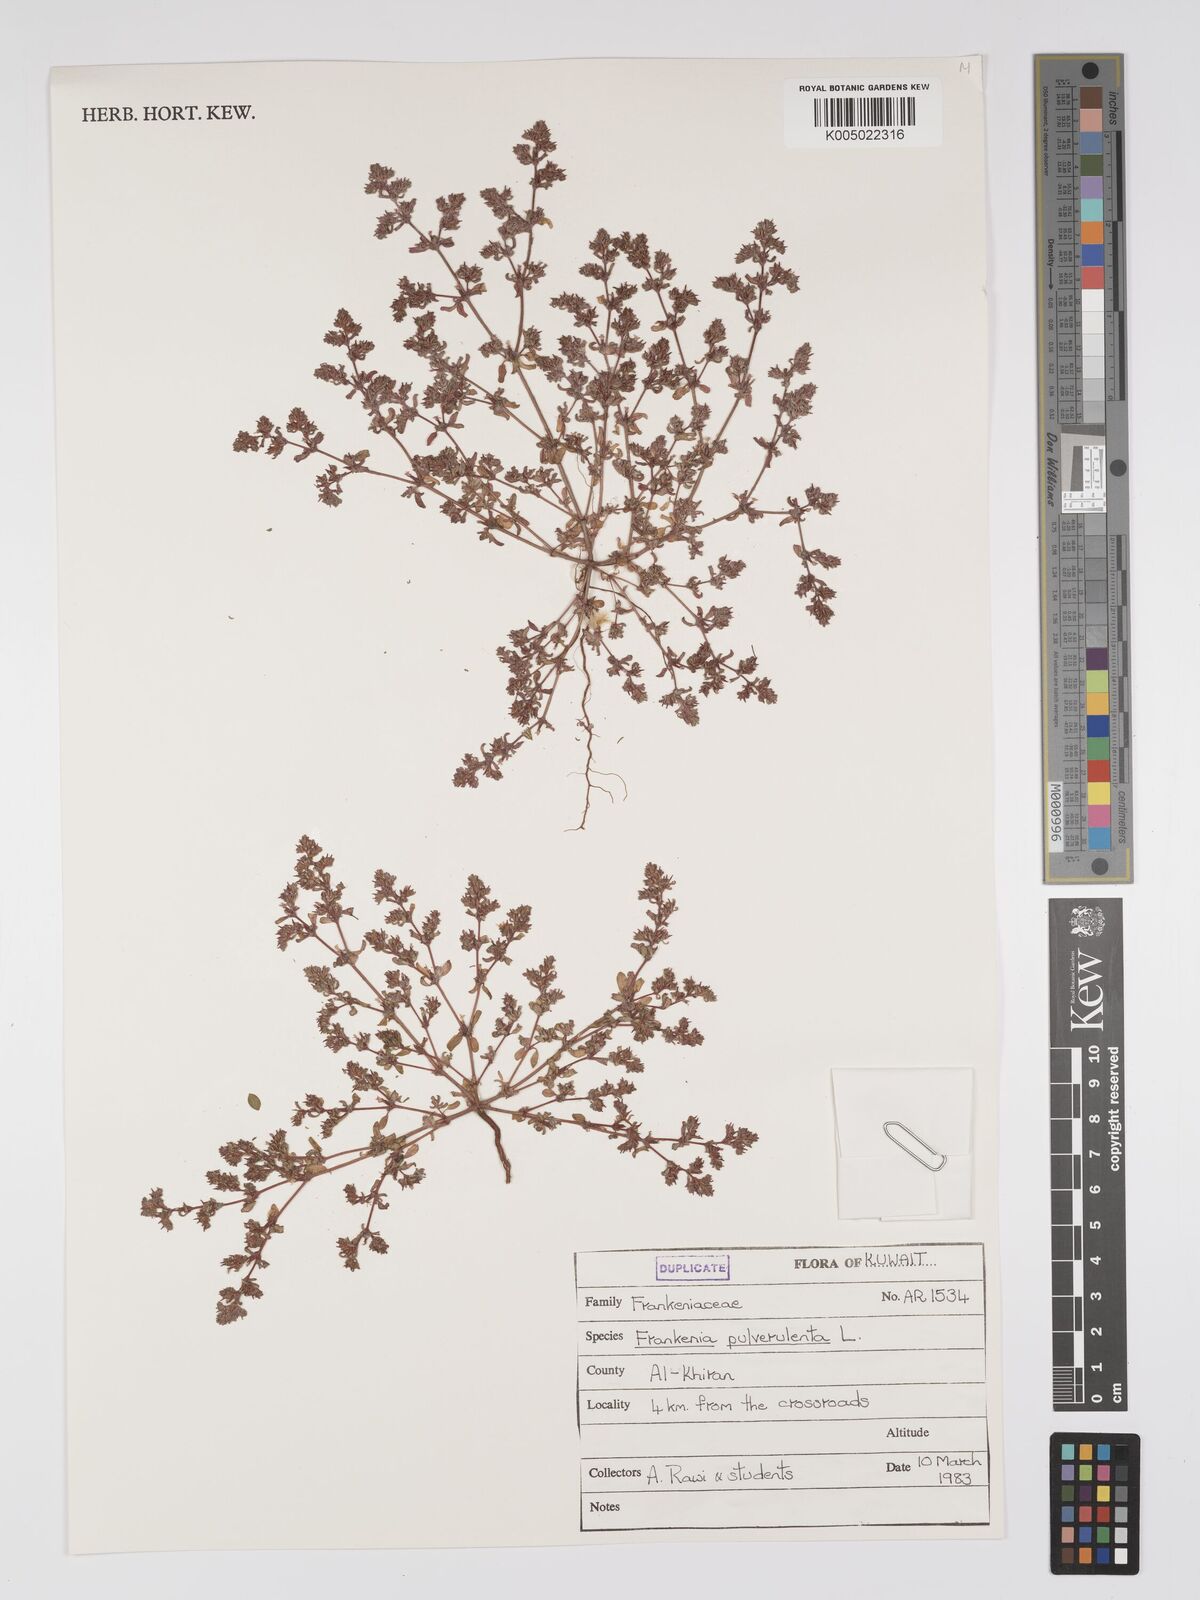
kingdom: Plantae
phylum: Tracheophyta
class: Magnoliopsida
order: Caryophyllales
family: Frankeniaceae
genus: Frankenia
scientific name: Frankenia pulverulenta
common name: European seaheath
